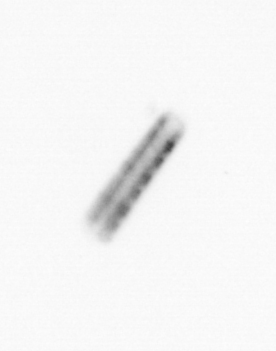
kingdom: Chromista
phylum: Ochrophyta
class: Bacillariophyceae
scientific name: Bacillariophyceae
